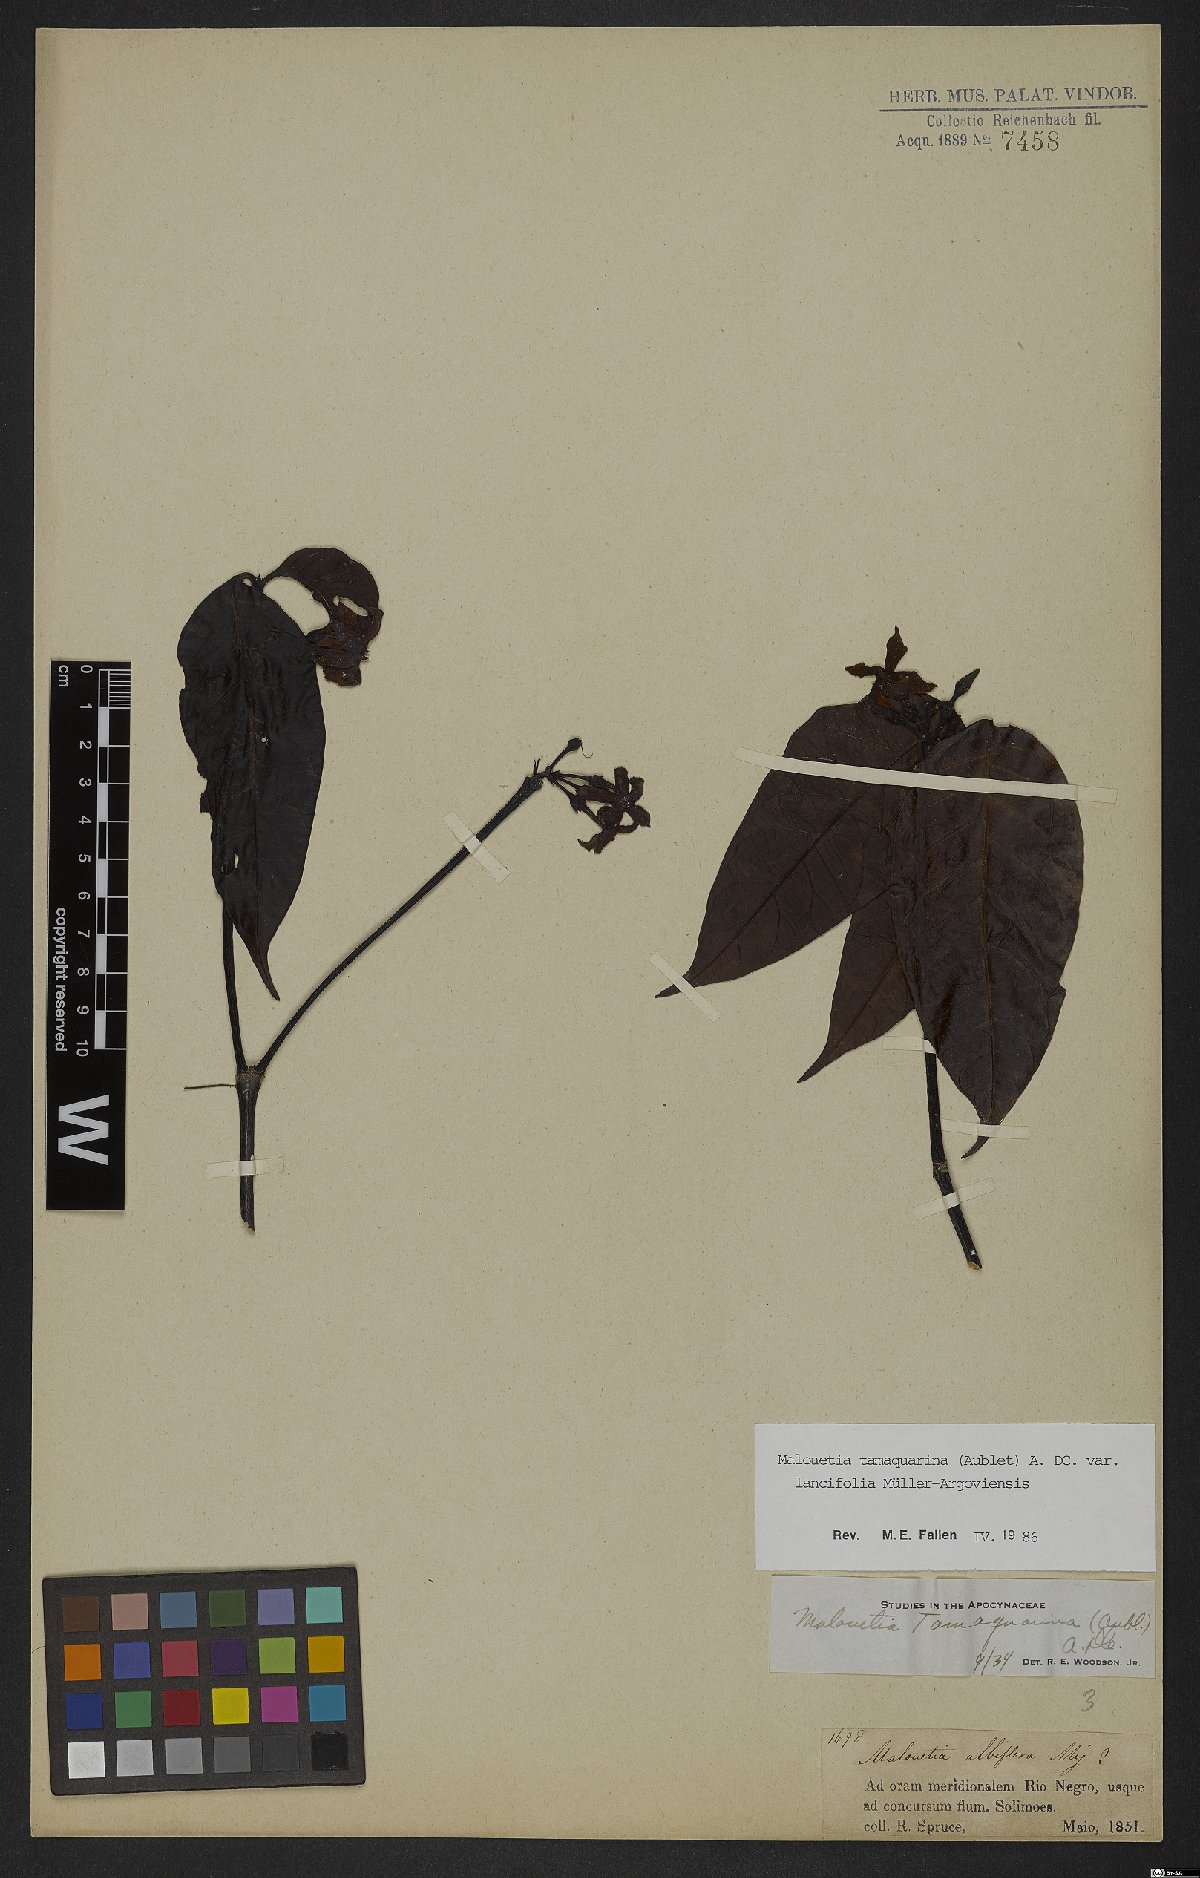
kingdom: Plantae
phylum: Tracheophyta
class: Magnoliopsida
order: Gentianales
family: Apocynaceae
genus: Malouetia
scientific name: Malouetia tamaquarina
